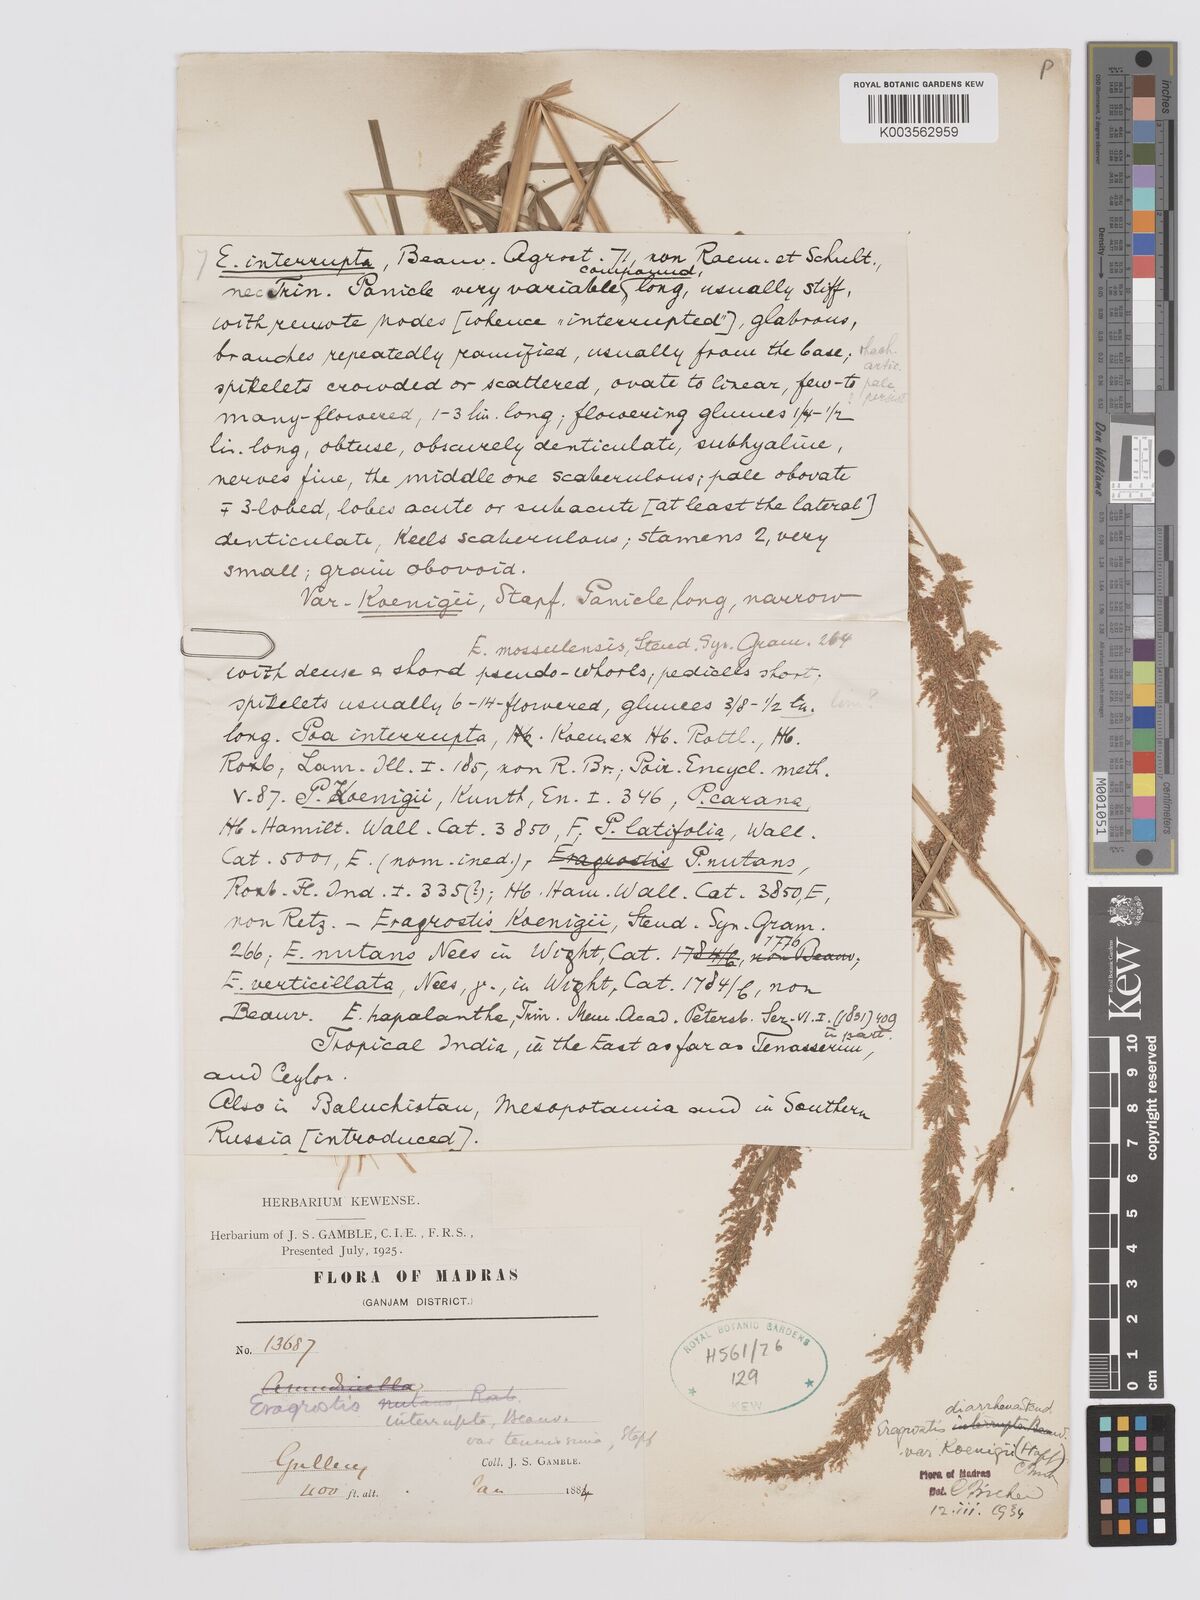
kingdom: Plantae
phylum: Tracheophyta
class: Liliopsida
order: Poales
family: Poaceae
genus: Eragrostis
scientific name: Eragrostis japonica
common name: Pond lovegrass
